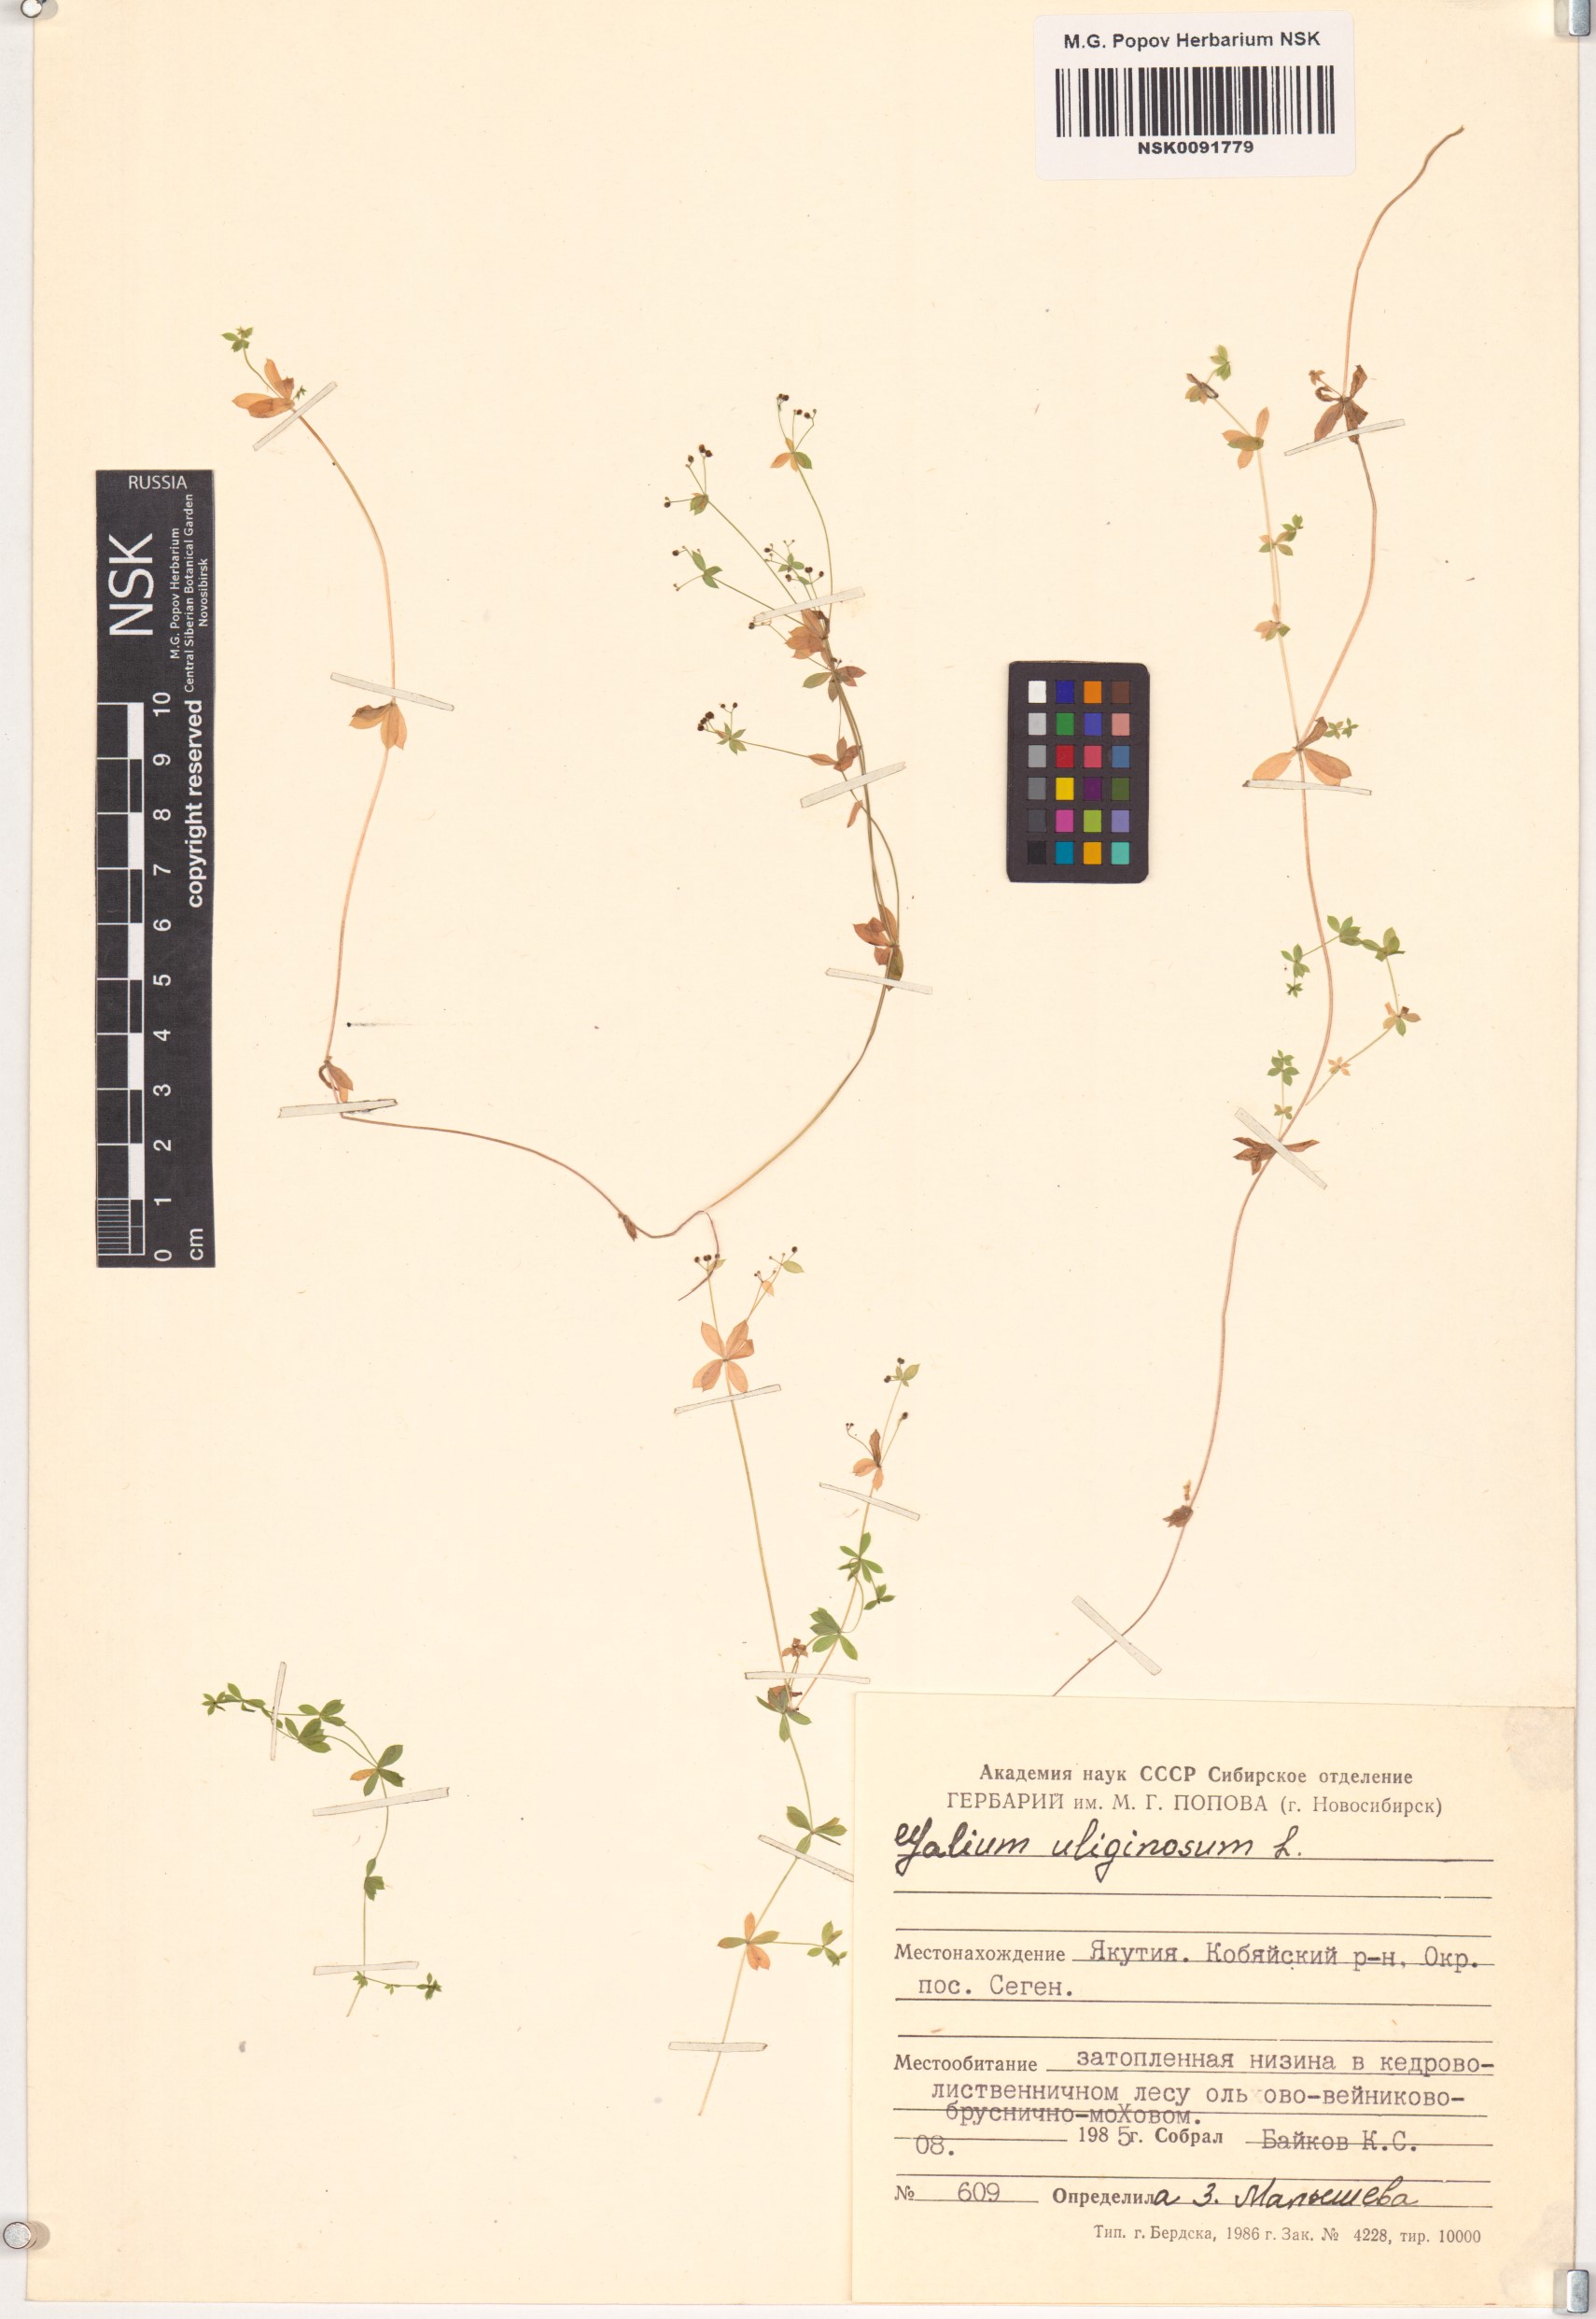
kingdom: Plantae
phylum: Tracheophyta
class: Magnoliopsida
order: Gentianales
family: Rubiaceae
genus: Galium
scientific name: Galium uliginosum
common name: Fen bedstraw
